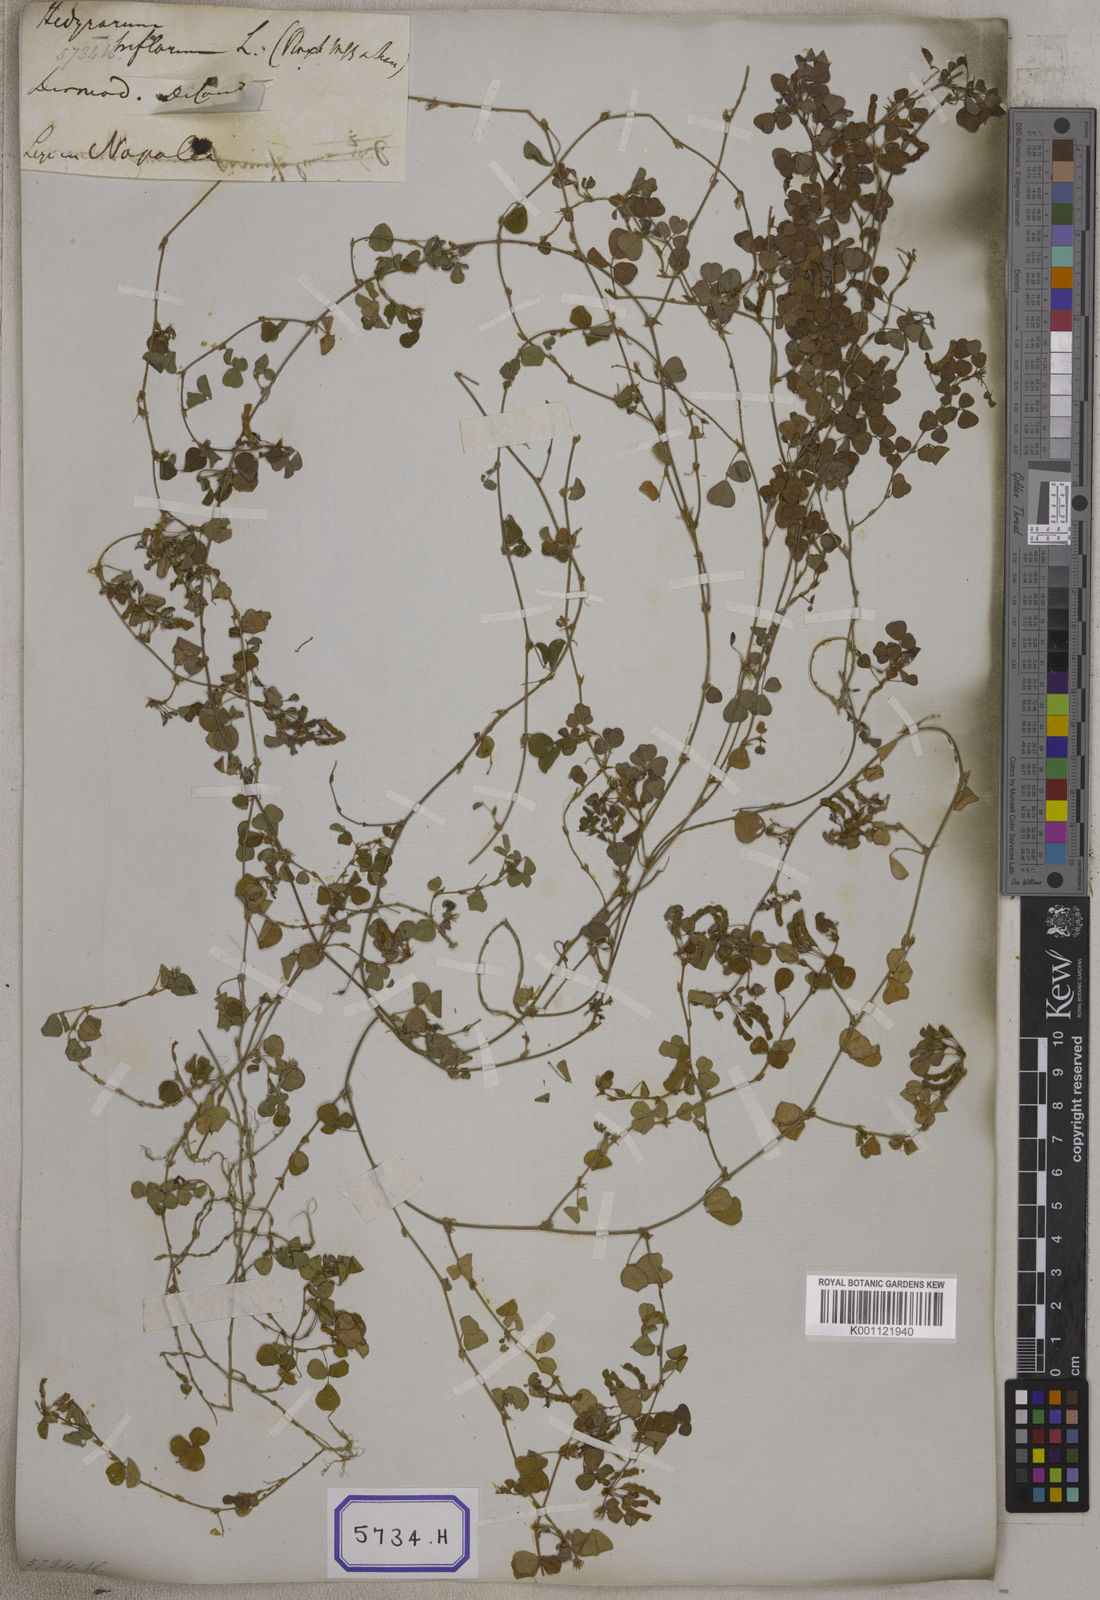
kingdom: Plantae
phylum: Tracheophyta
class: Magnoliopsida
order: Fabales
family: Fabaceae
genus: Desmodium
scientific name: Desmodium
